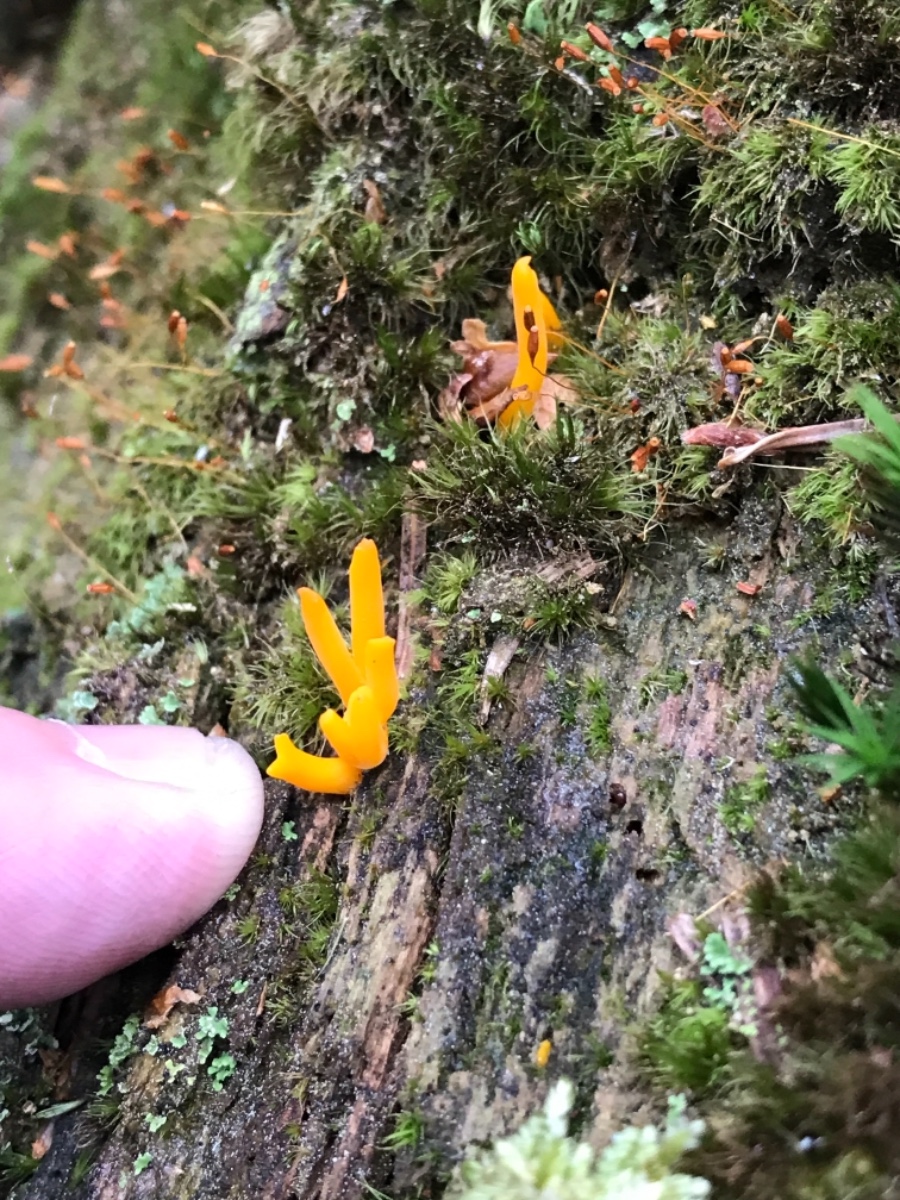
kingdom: Fungi
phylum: Basidiomycota
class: Dacrymycetes
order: Dacrymycetales
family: Dacrymycetaceae
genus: Calocera
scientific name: Calocera viscosa
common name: almindelig guldgaffel
